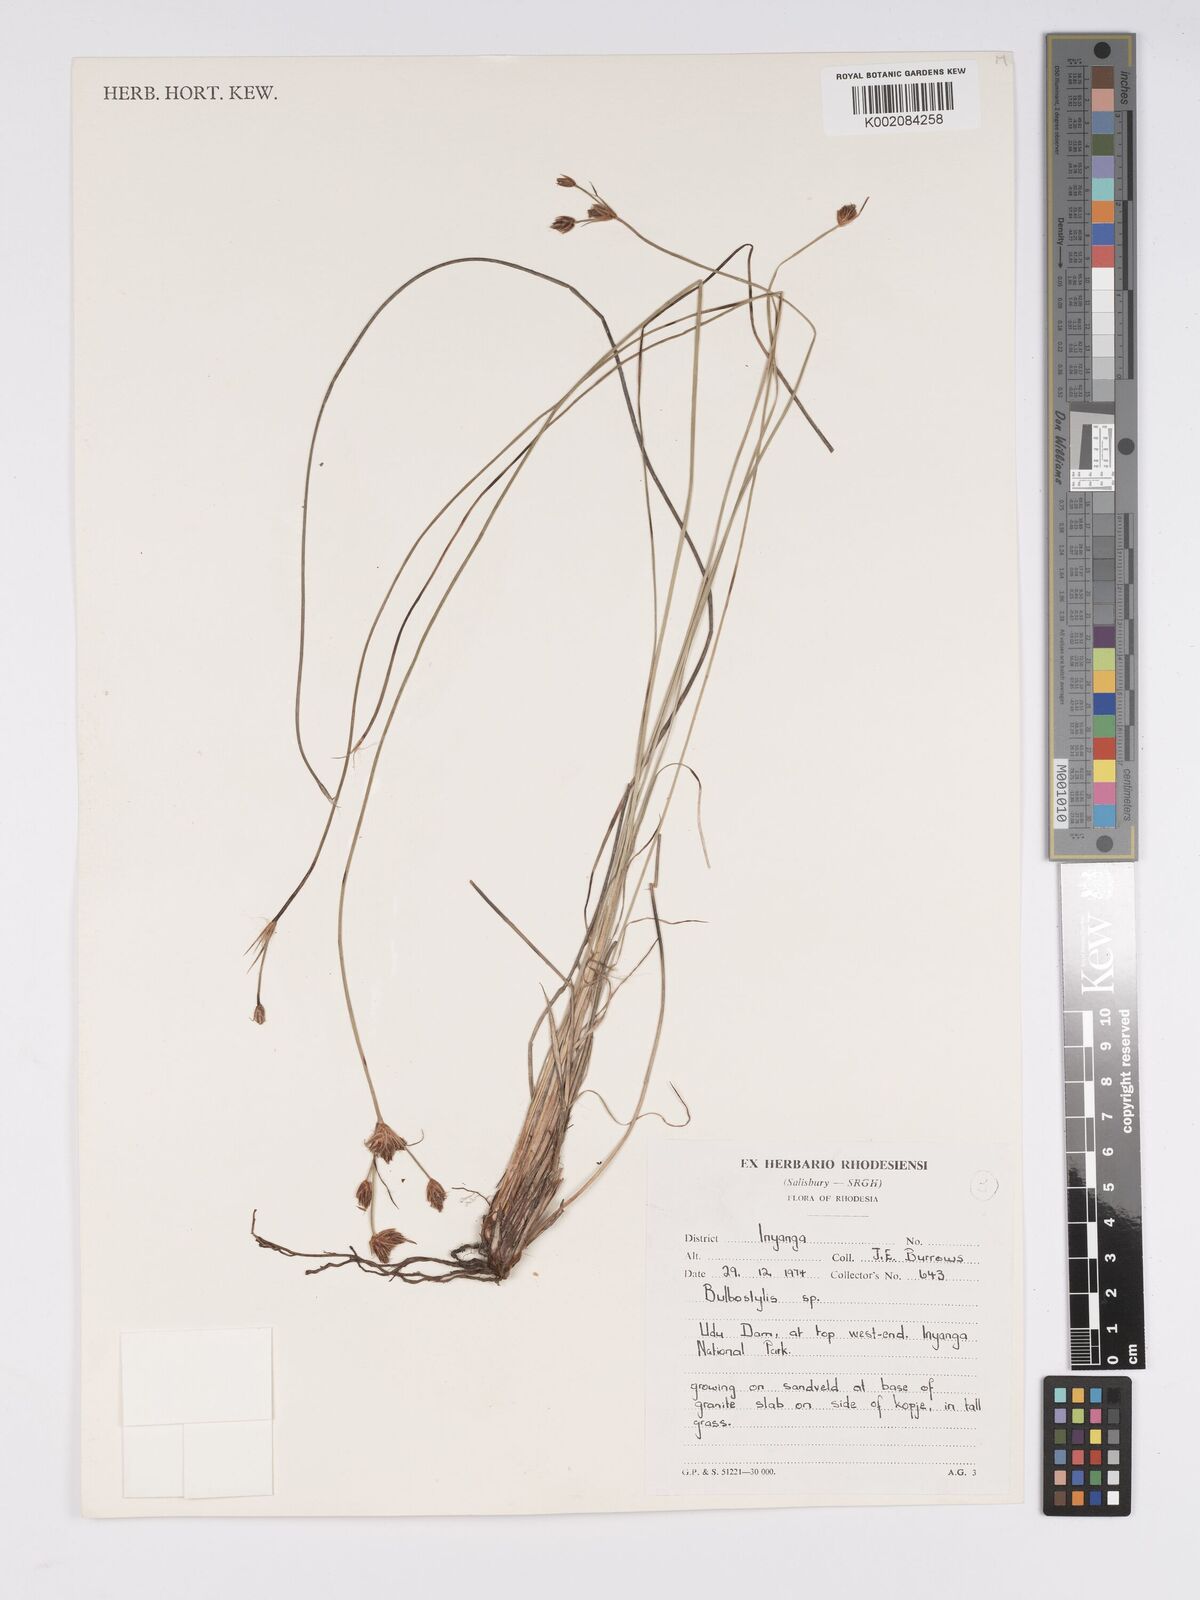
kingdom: Plantae
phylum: Tracheophyta
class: Liliopsida
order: Poales
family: Cyperaceae
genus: Bulbostylis
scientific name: Bulbostylis
